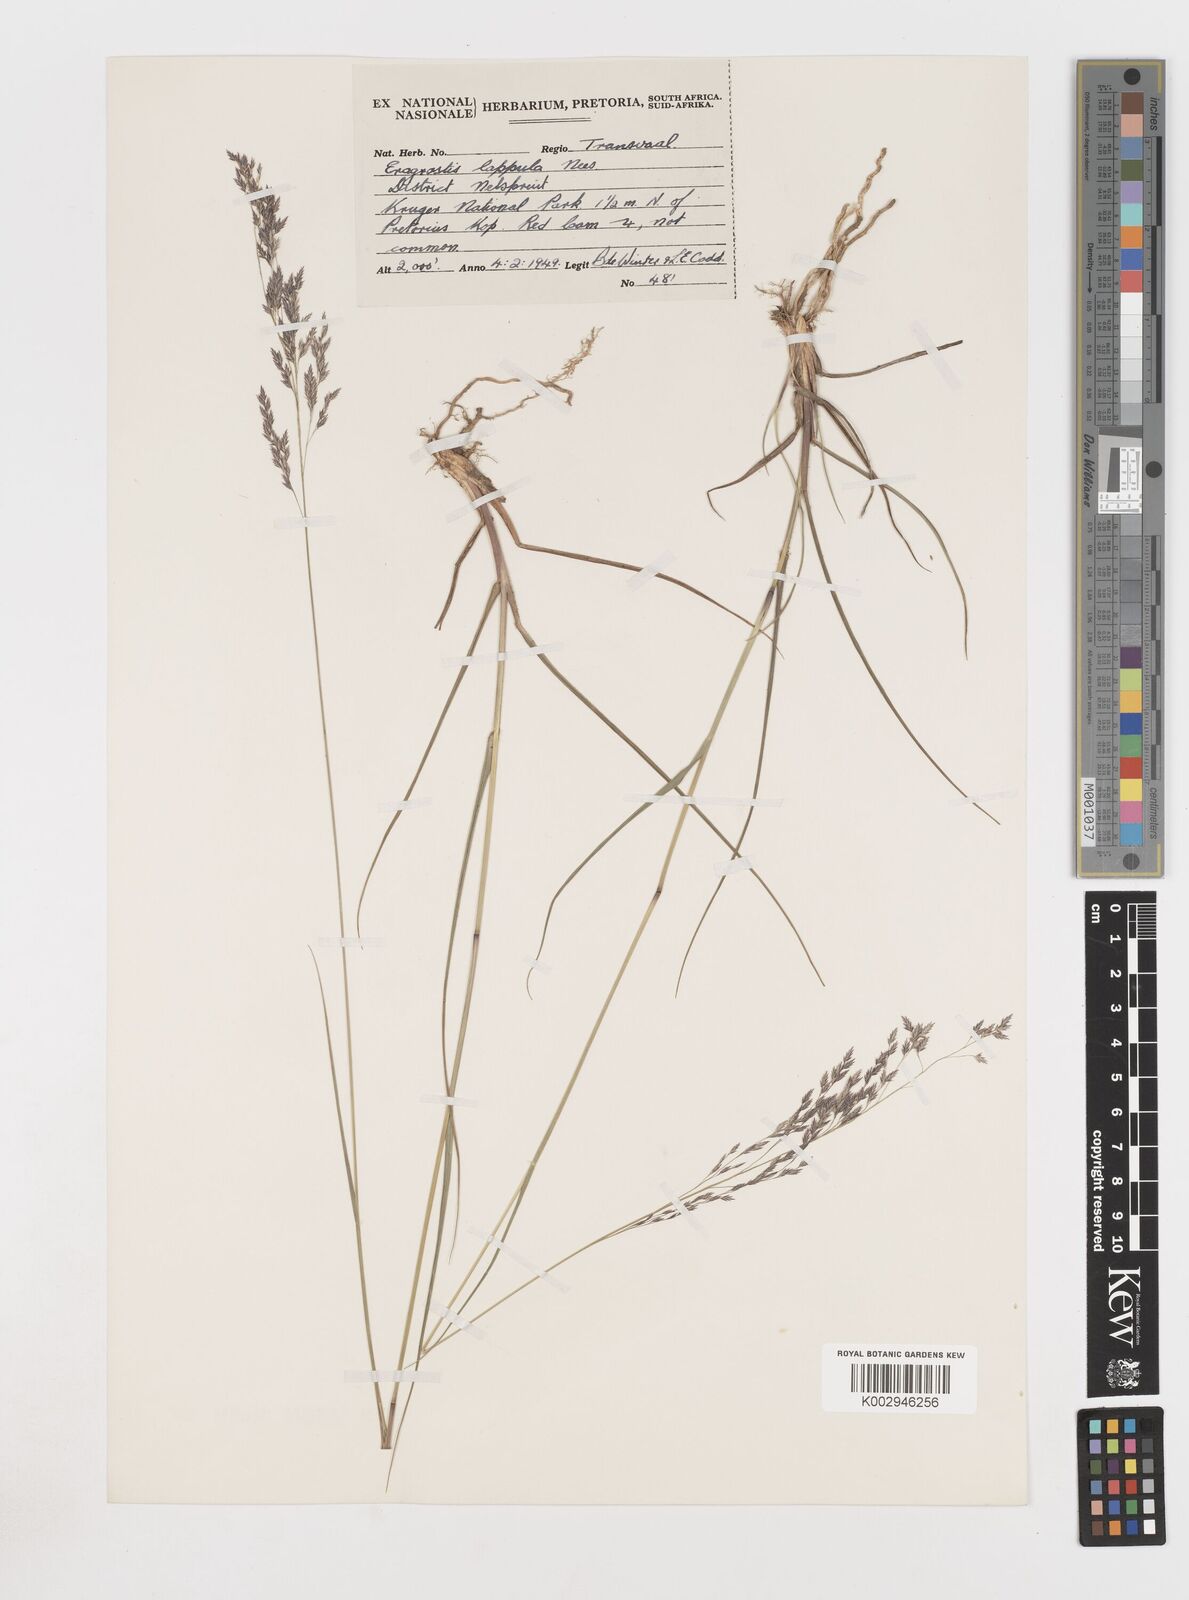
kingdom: Plantae
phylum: Tracheophyta
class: Liliopsida
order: Poales
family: Poaceae
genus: Eragrostis
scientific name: Eragrostis lappula
